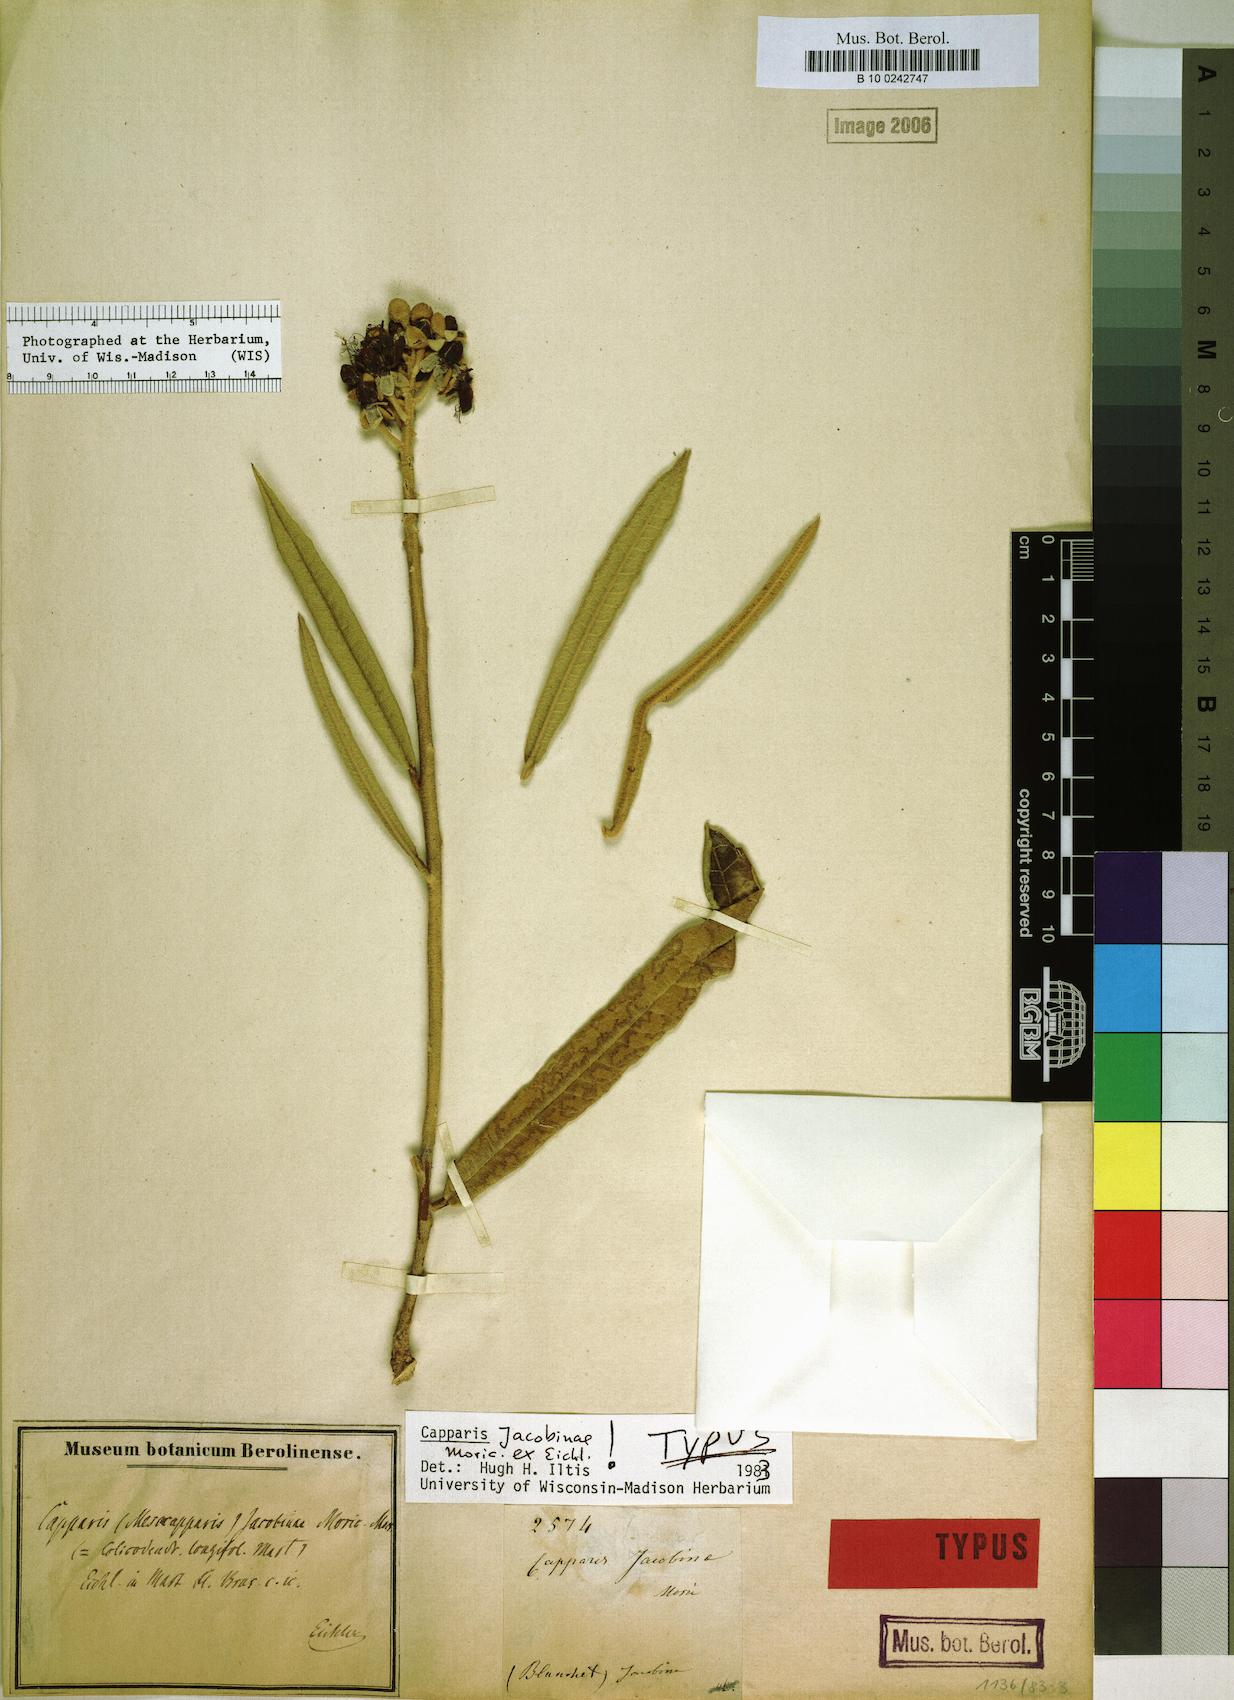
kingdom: Plantae
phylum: Tracheophyta
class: Magnoliopsida
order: Brassicales
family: Capparaceae
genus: Neocalyptrocalyx
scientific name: Neocalyptrocalyx longifolium
